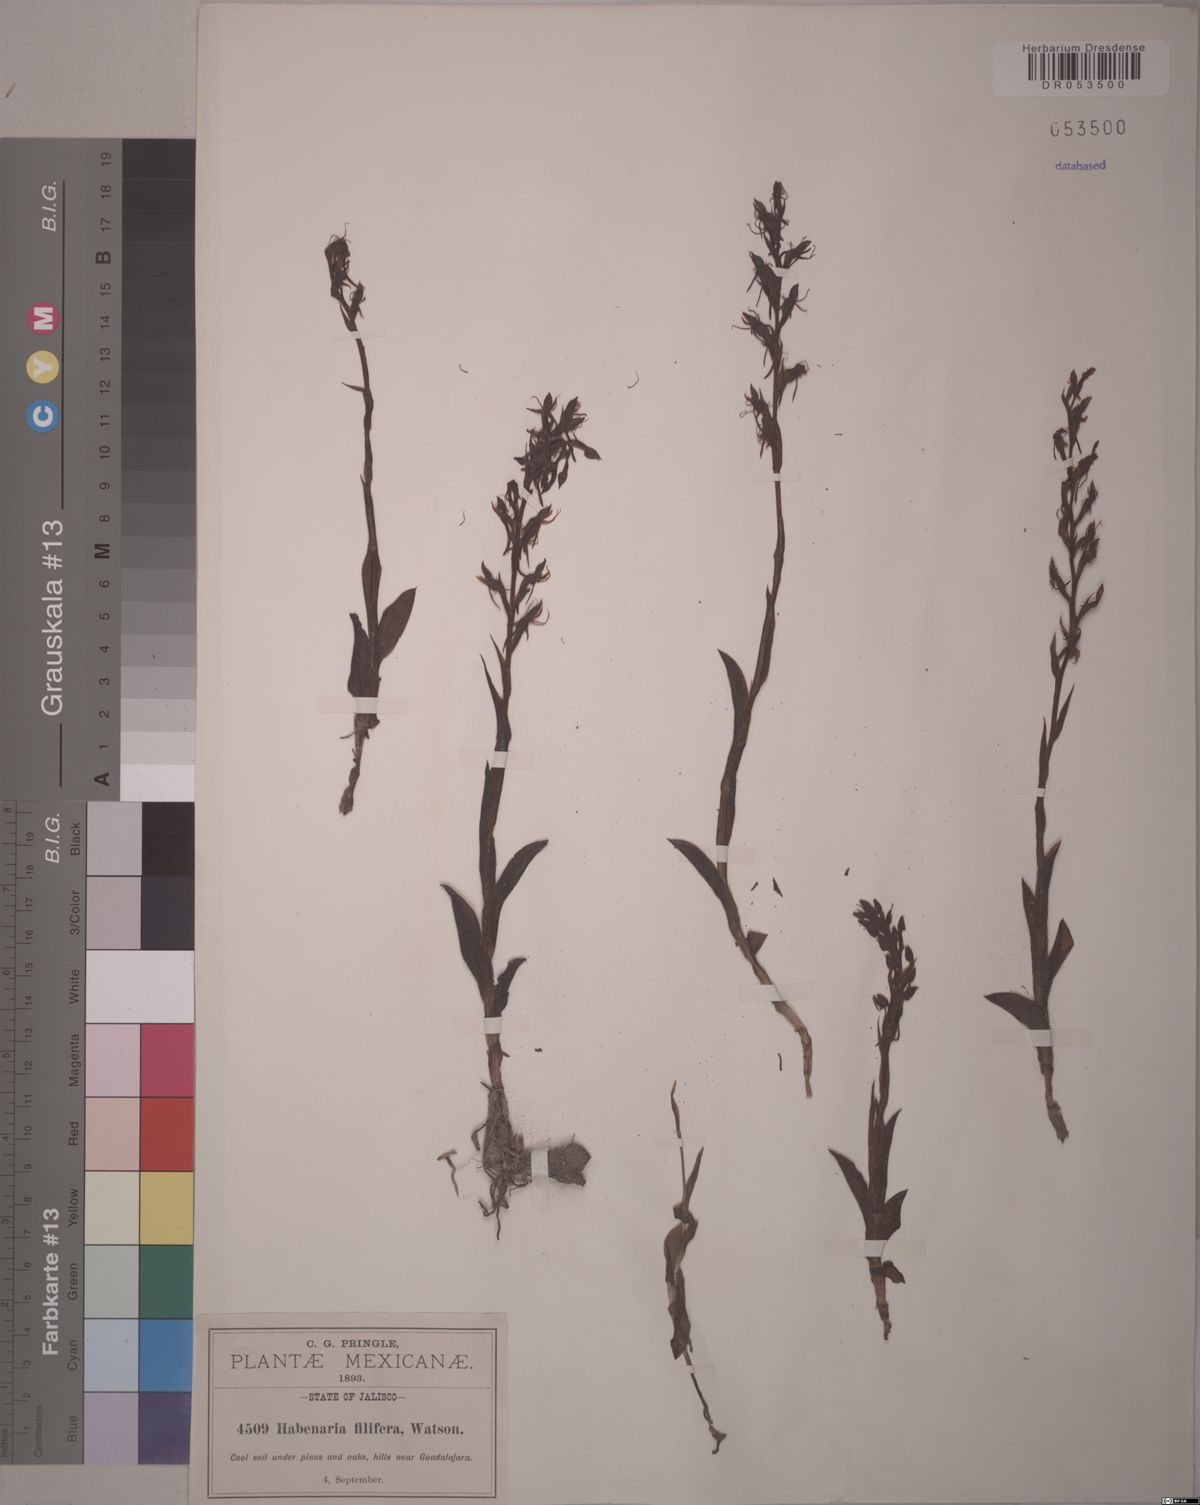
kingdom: Plantae
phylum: Tracheophyta
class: Liliopsida
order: Asparagales
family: Orchidaceae
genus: Habenaria
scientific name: Habenaria filifera
